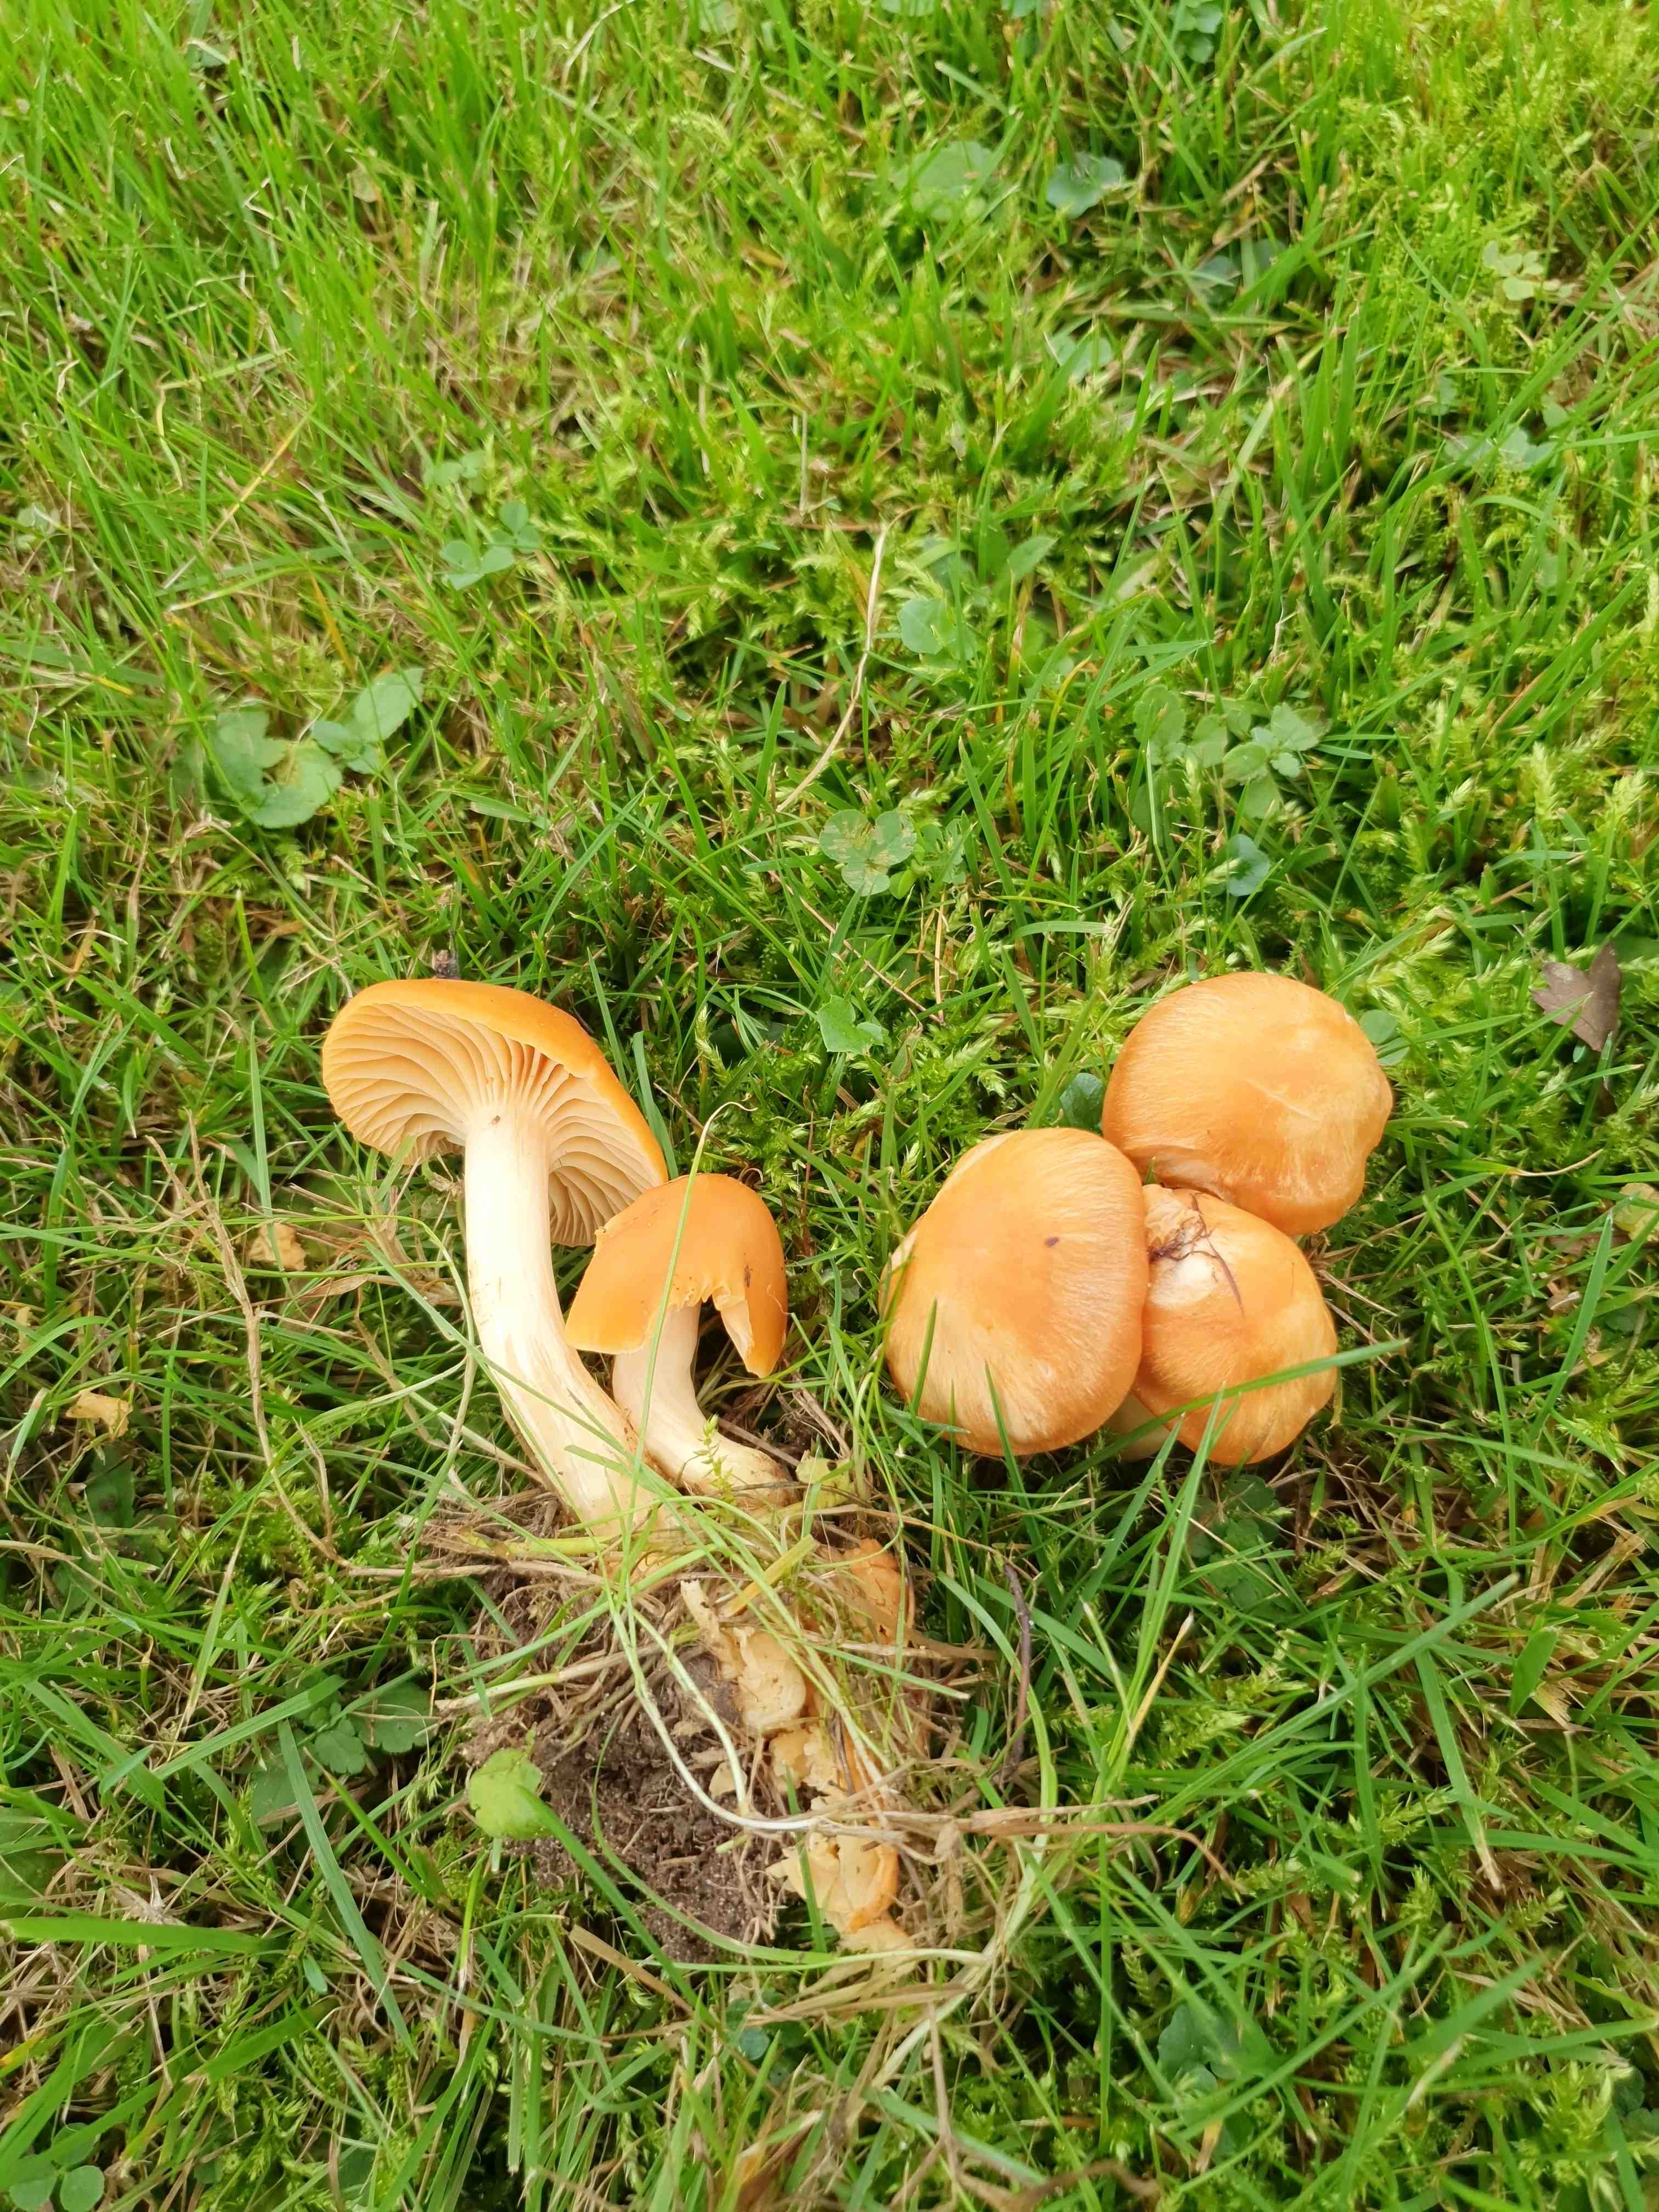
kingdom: Fungi
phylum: Basidiomycota
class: Agaricomycetes
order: Agaricales
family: Hygrophoraceae
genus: Cuphophyllus
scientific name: Cuphophyllus pratensis
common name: eng-vokshat
